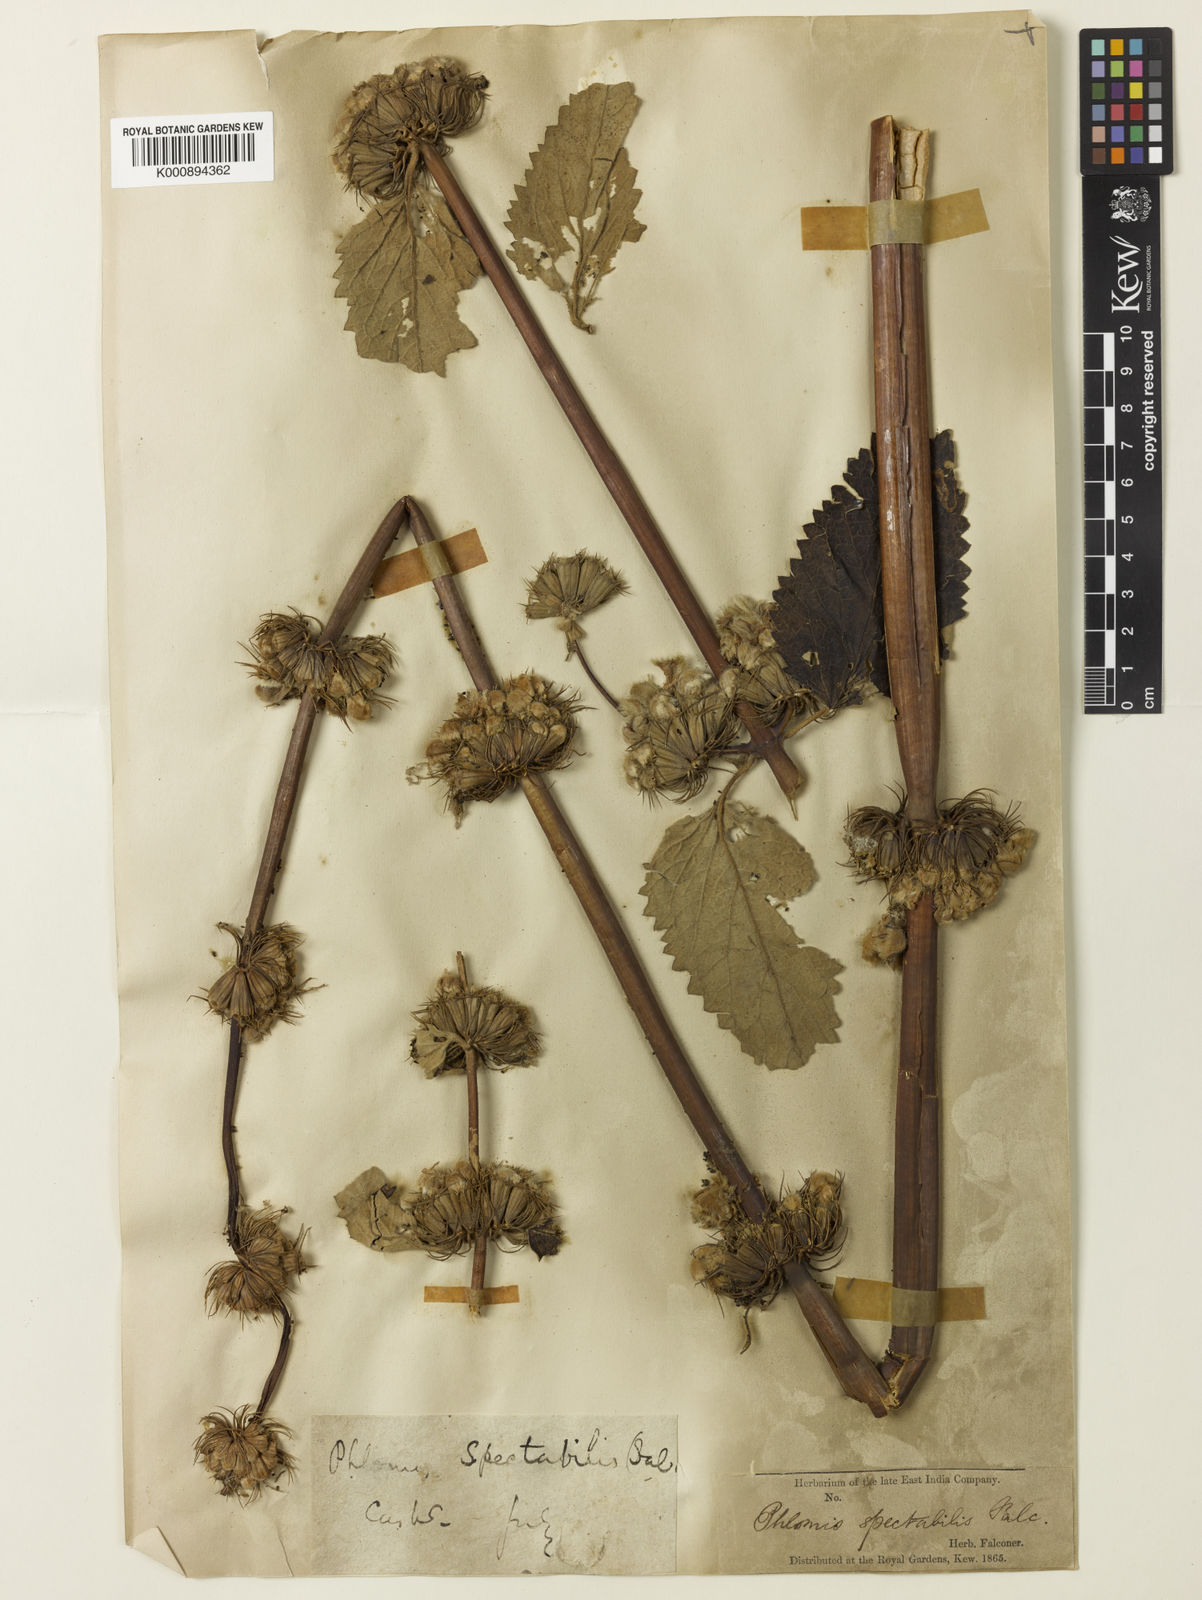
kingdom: Plantae
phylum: Tracheophyta
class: Magnoliopsida
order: Lamiales
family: Lamiaceae
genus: Phlomoides
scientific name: Phlomoides spectabilis
